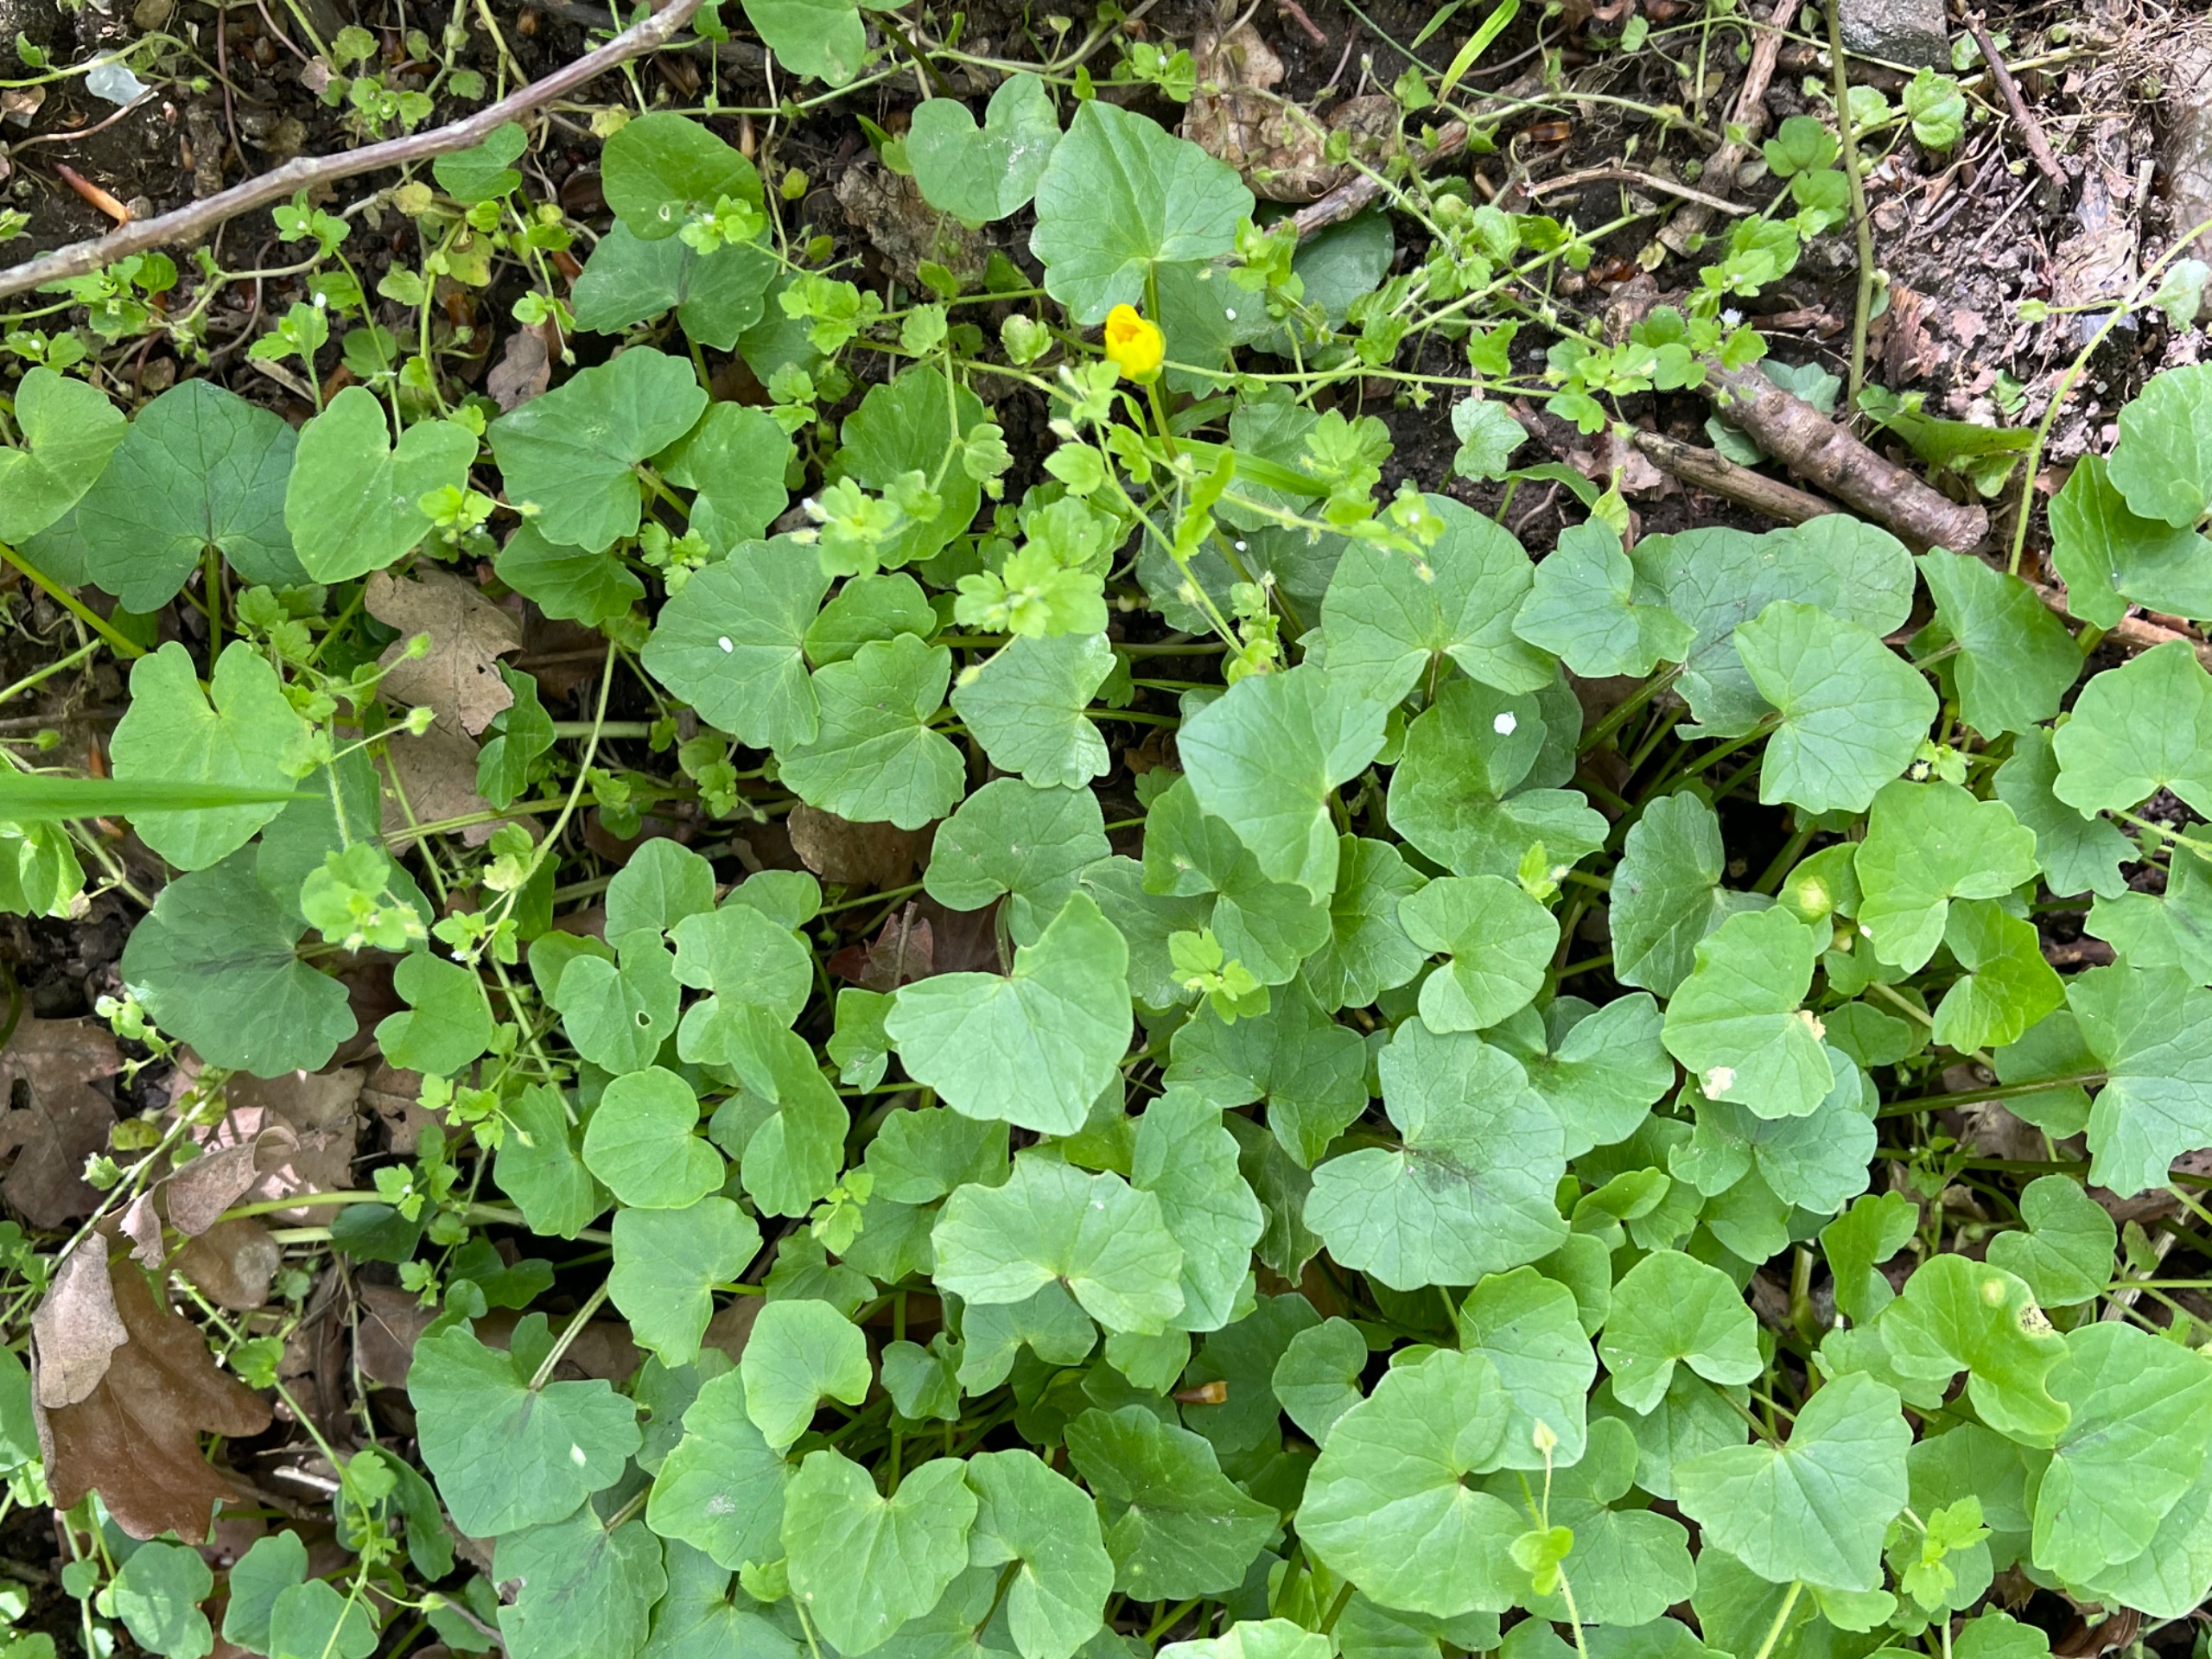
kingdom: Plantae
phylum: Tracheophyta
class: Magnoliopsida
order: Ranunculales
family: Ranunculaceae
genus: Ficaria
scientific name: Ficaria verna
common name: Vorterod
